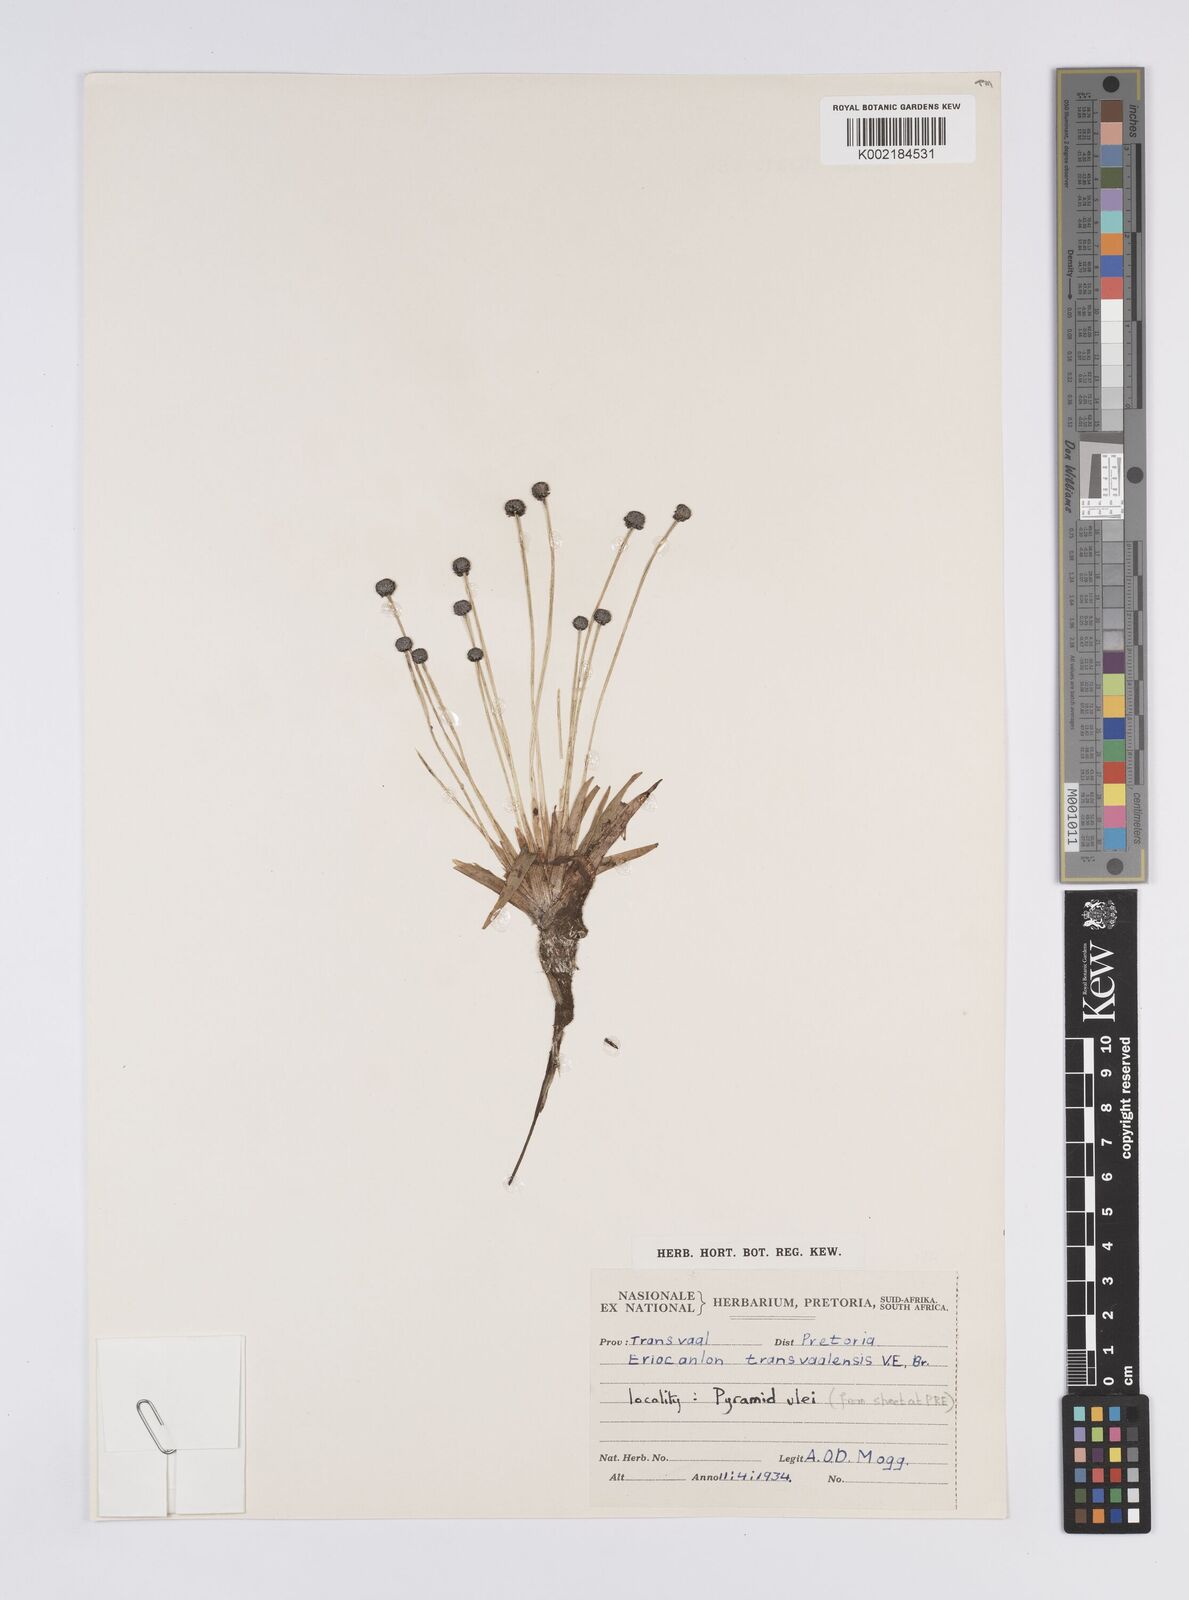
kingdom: Plantae
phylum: Tracheophyta
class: Liliopsida
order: Poales
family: Eriocaulaceae
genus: Eriocaulon
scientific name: Eriocaulon transvaalicum
